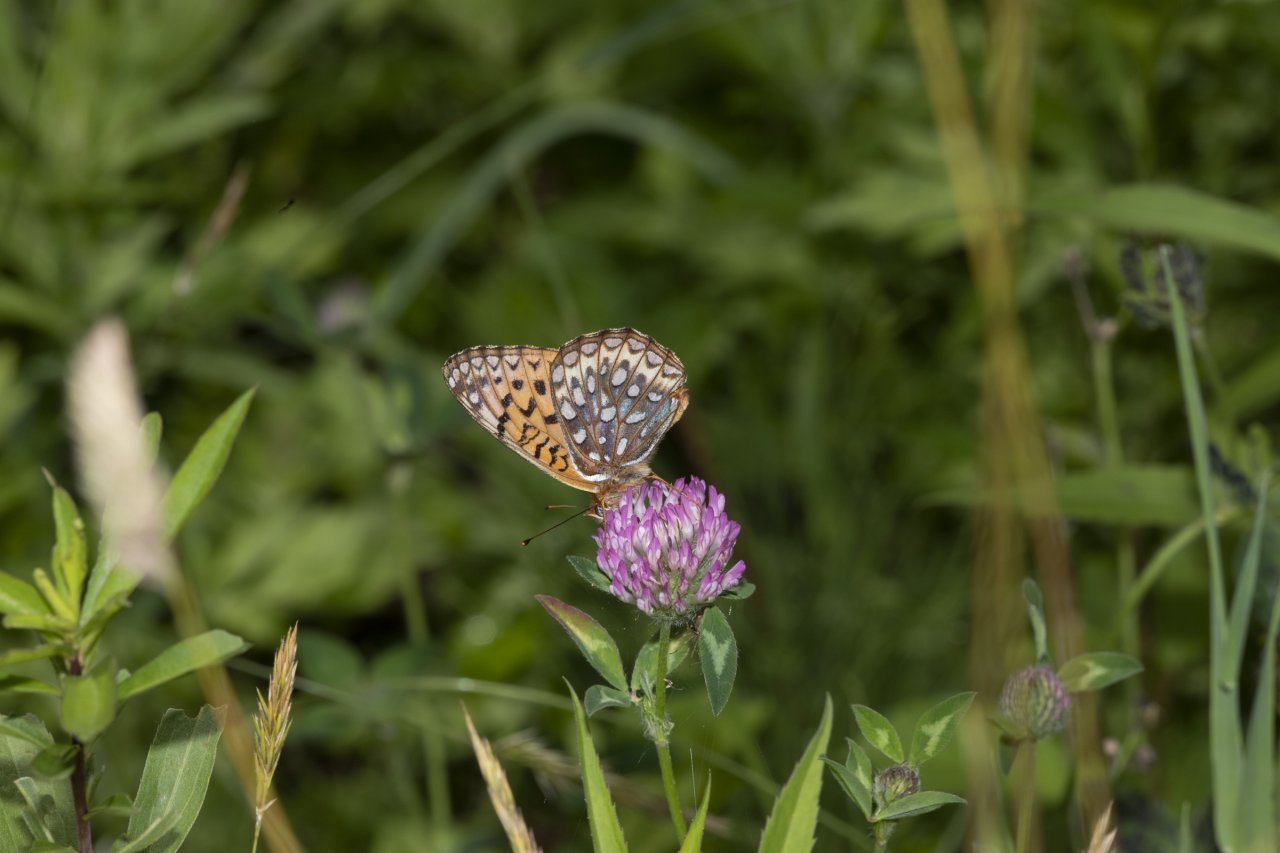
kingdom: Animalia
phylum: Arthropoda
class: Insecta
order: Lepidoptera
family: Nymphalidae
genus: Speyeria
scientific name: Speyeria atlantis
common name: Atlantis Fritillary
